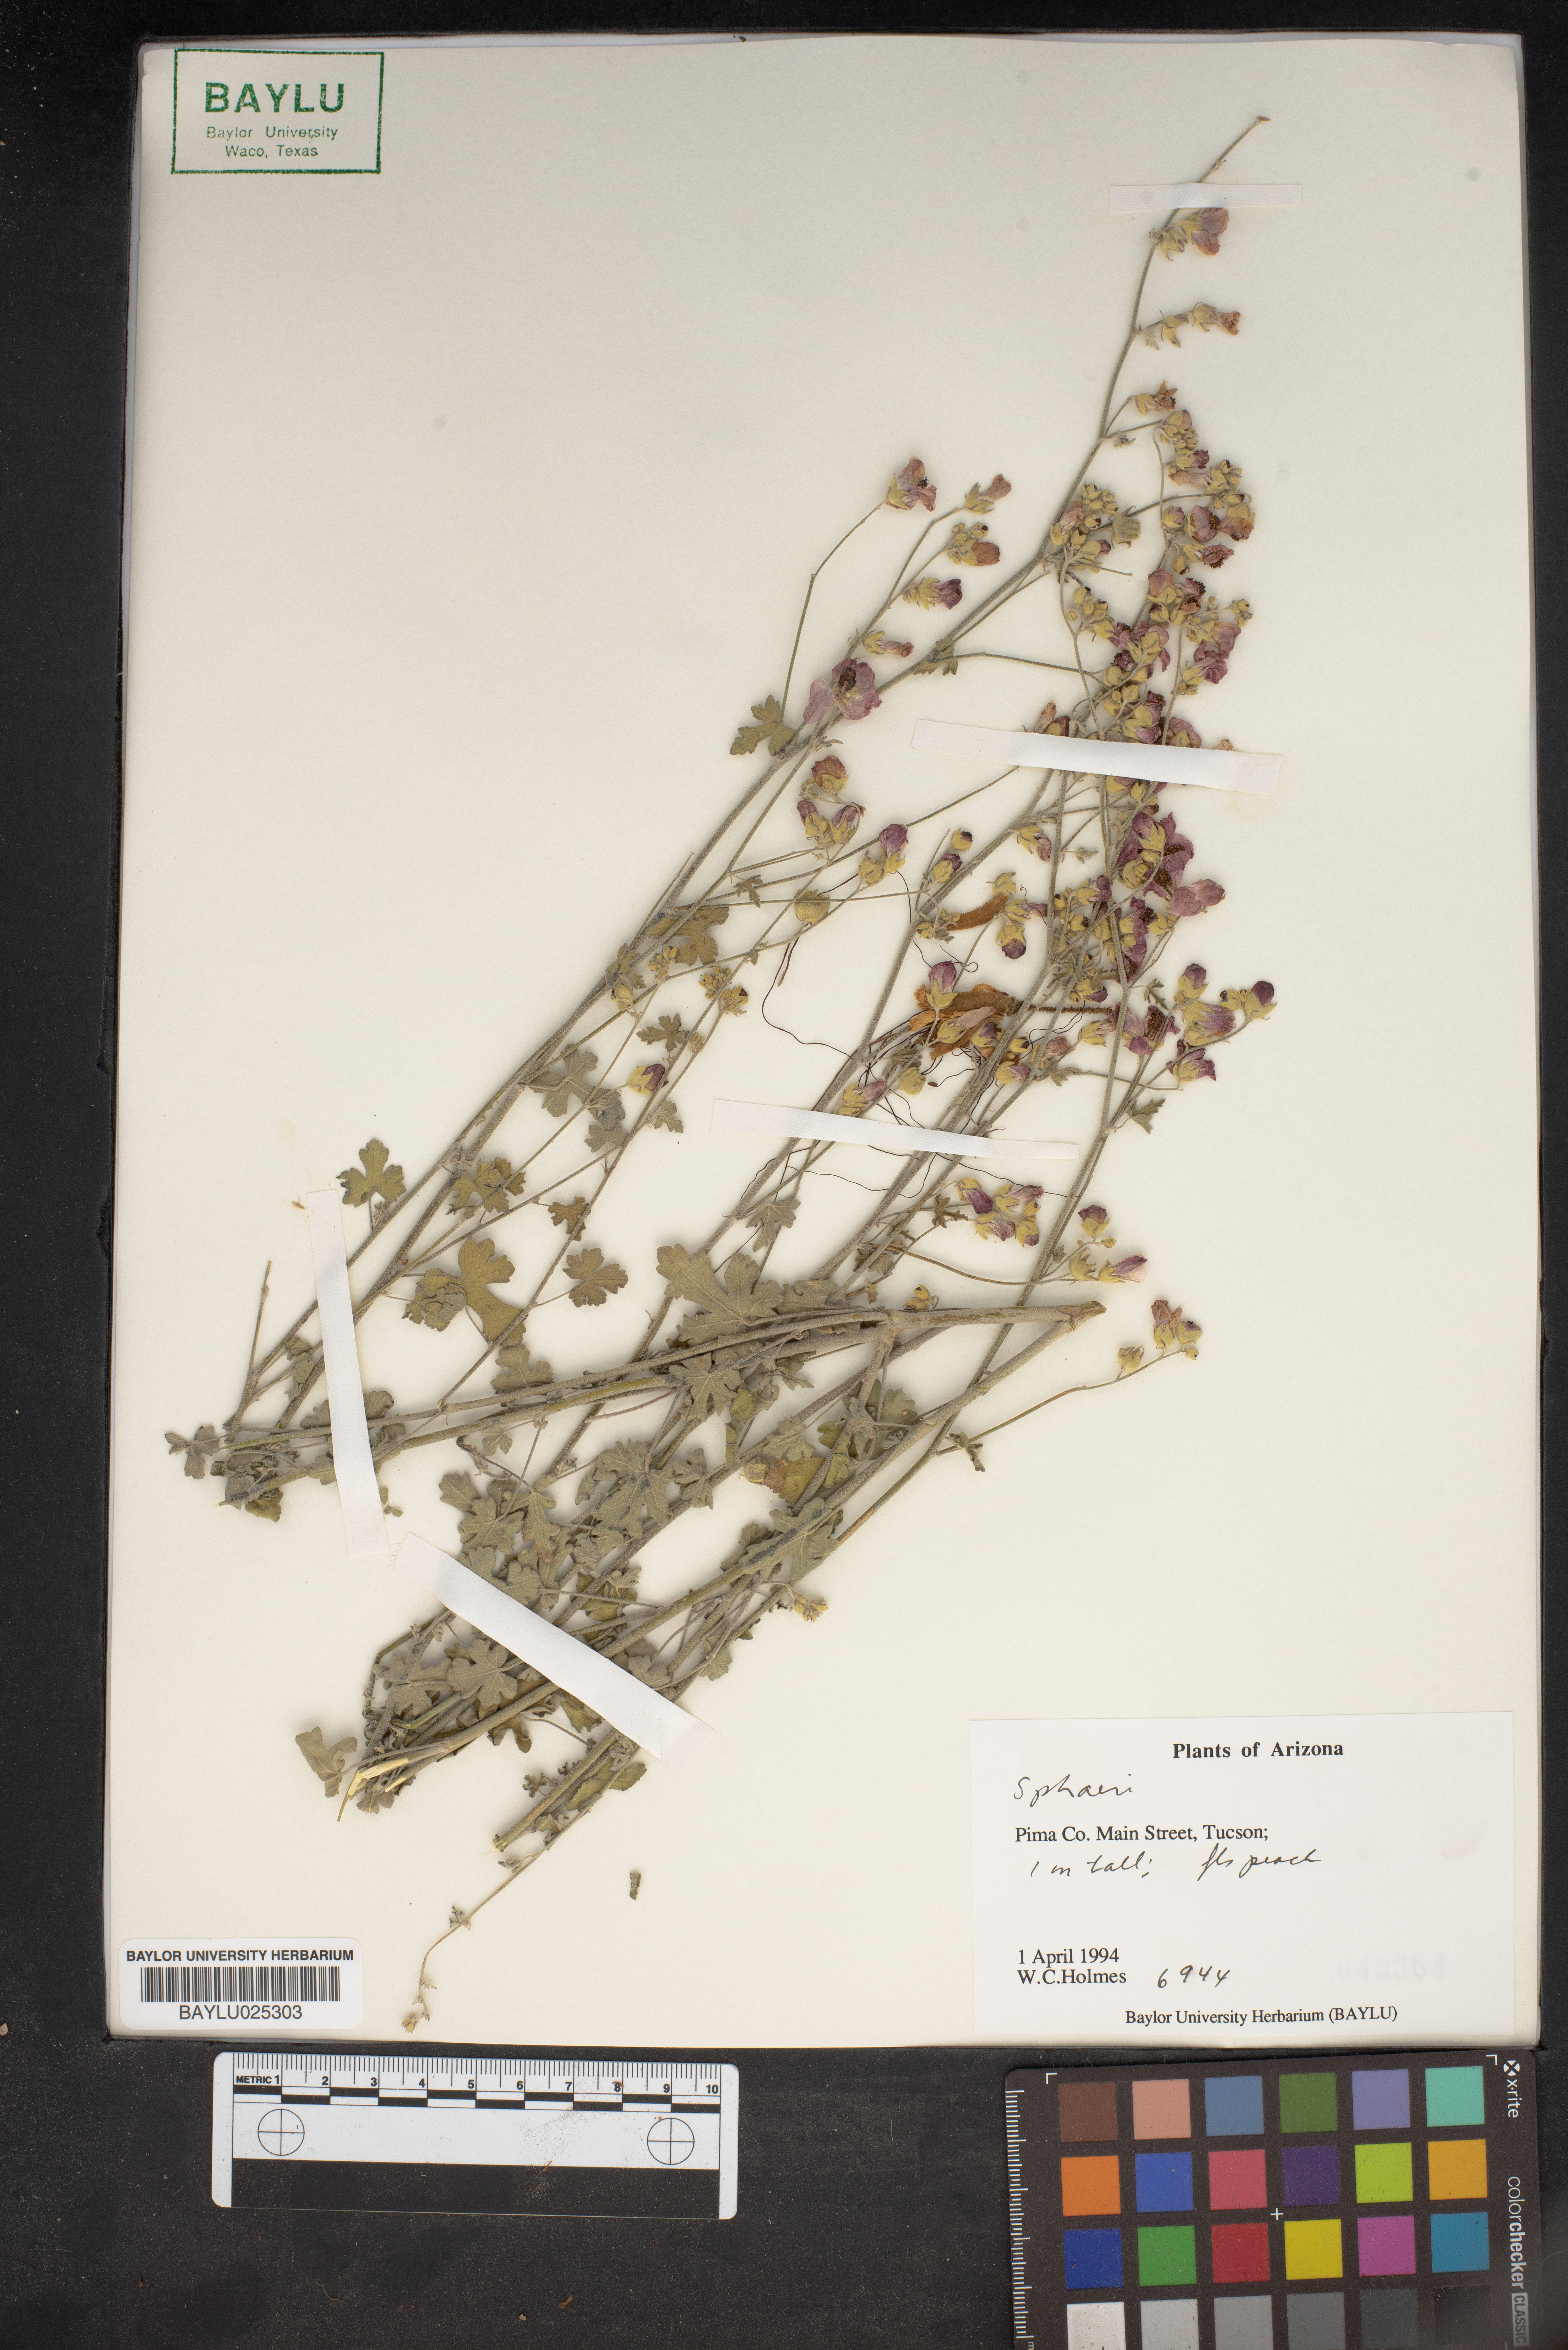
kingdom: Fungi
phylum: Ascomycota
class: Sordariomycetes
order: Xylariales
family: Hypoxylaceae
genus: Sphaeria
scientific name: Sphaeria
